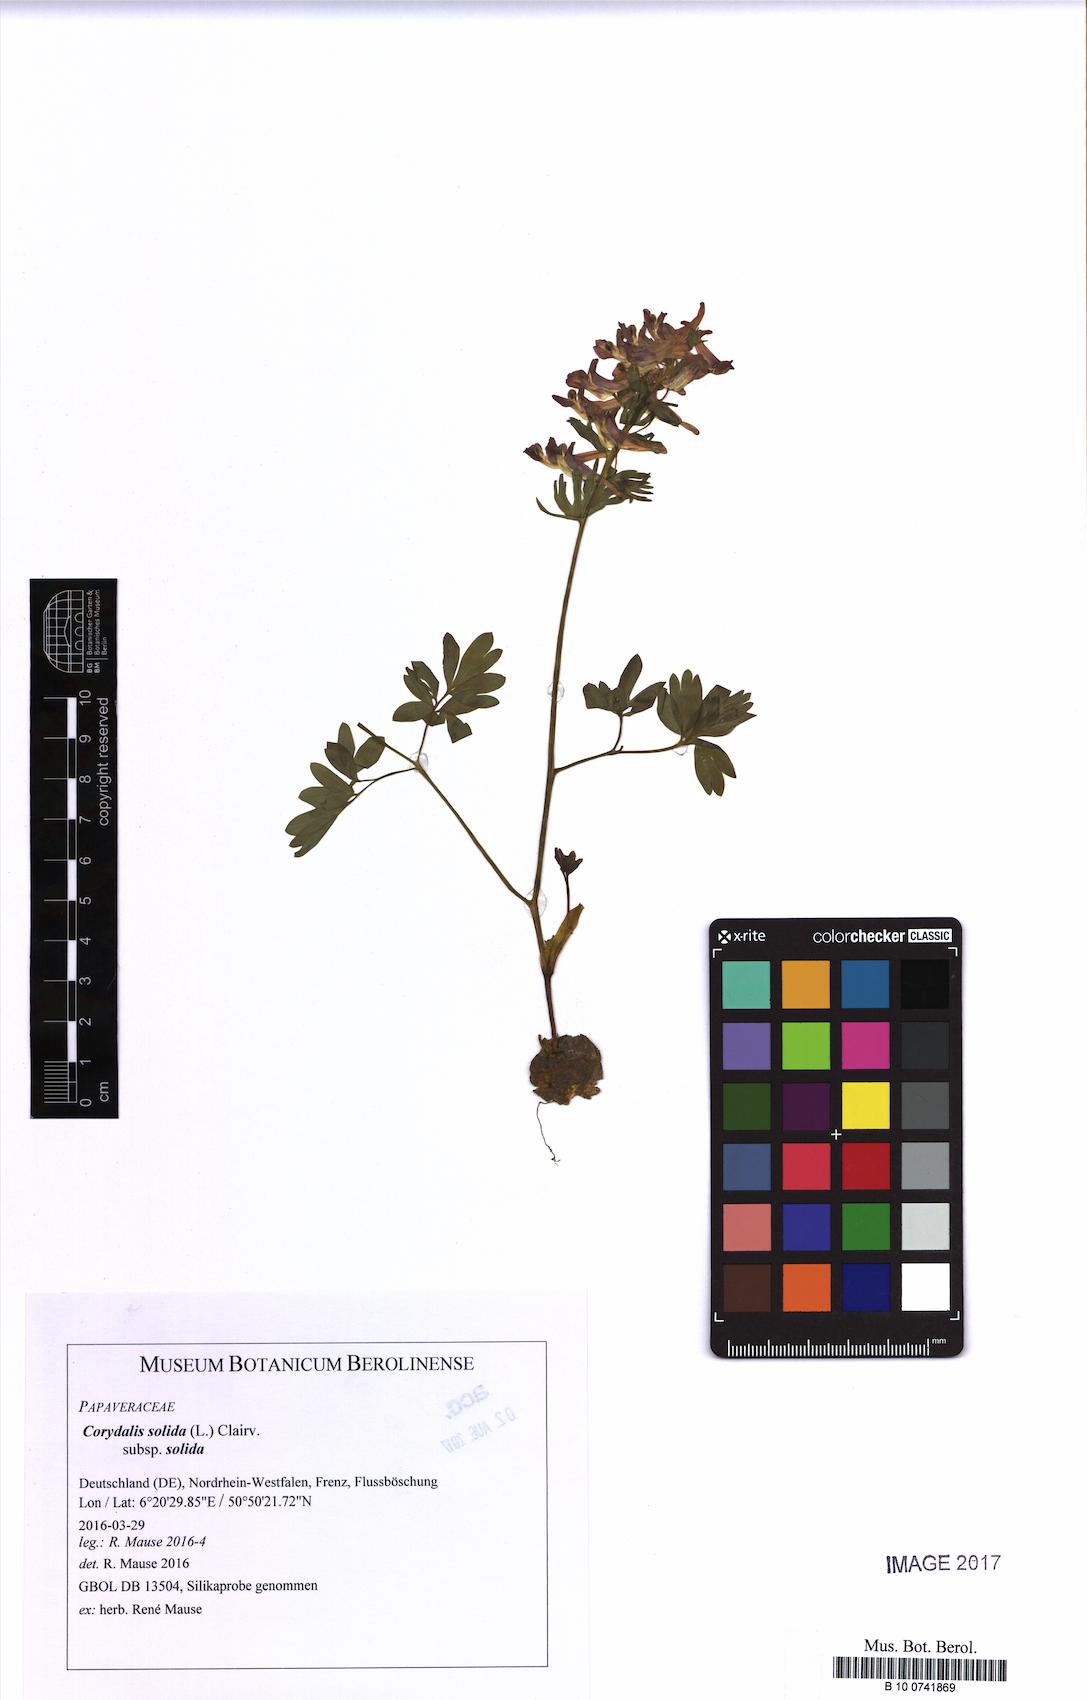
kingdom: Plantae
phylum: Tracheophyta
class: Magnoliopsida
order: Ranunculales
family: Papaveraceae
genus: Corydalis
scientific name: Corydalis solida
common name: Bird-in-a-bush
